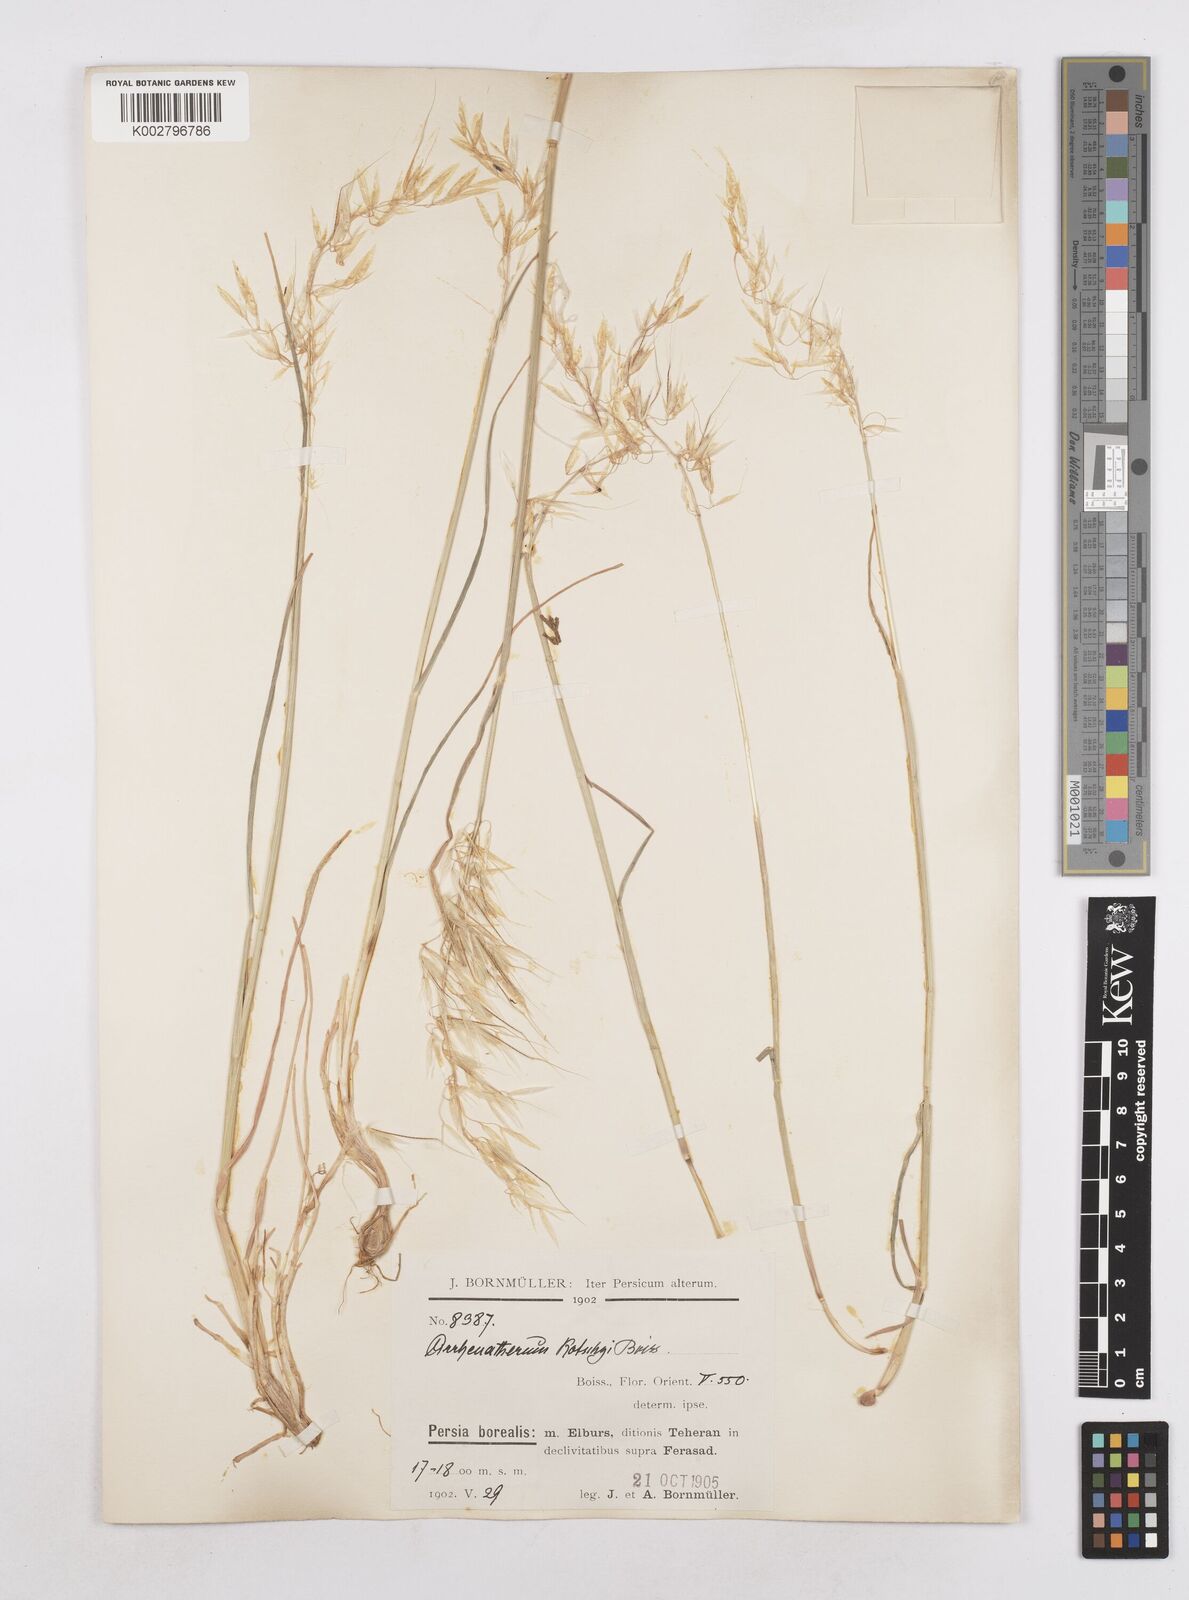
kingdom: Plantae
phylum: Tracheophyta
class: Liliopsida
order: Poales
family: Poaceae
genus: Arrhenatherum
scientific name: Arrhenatherum kotschyi
